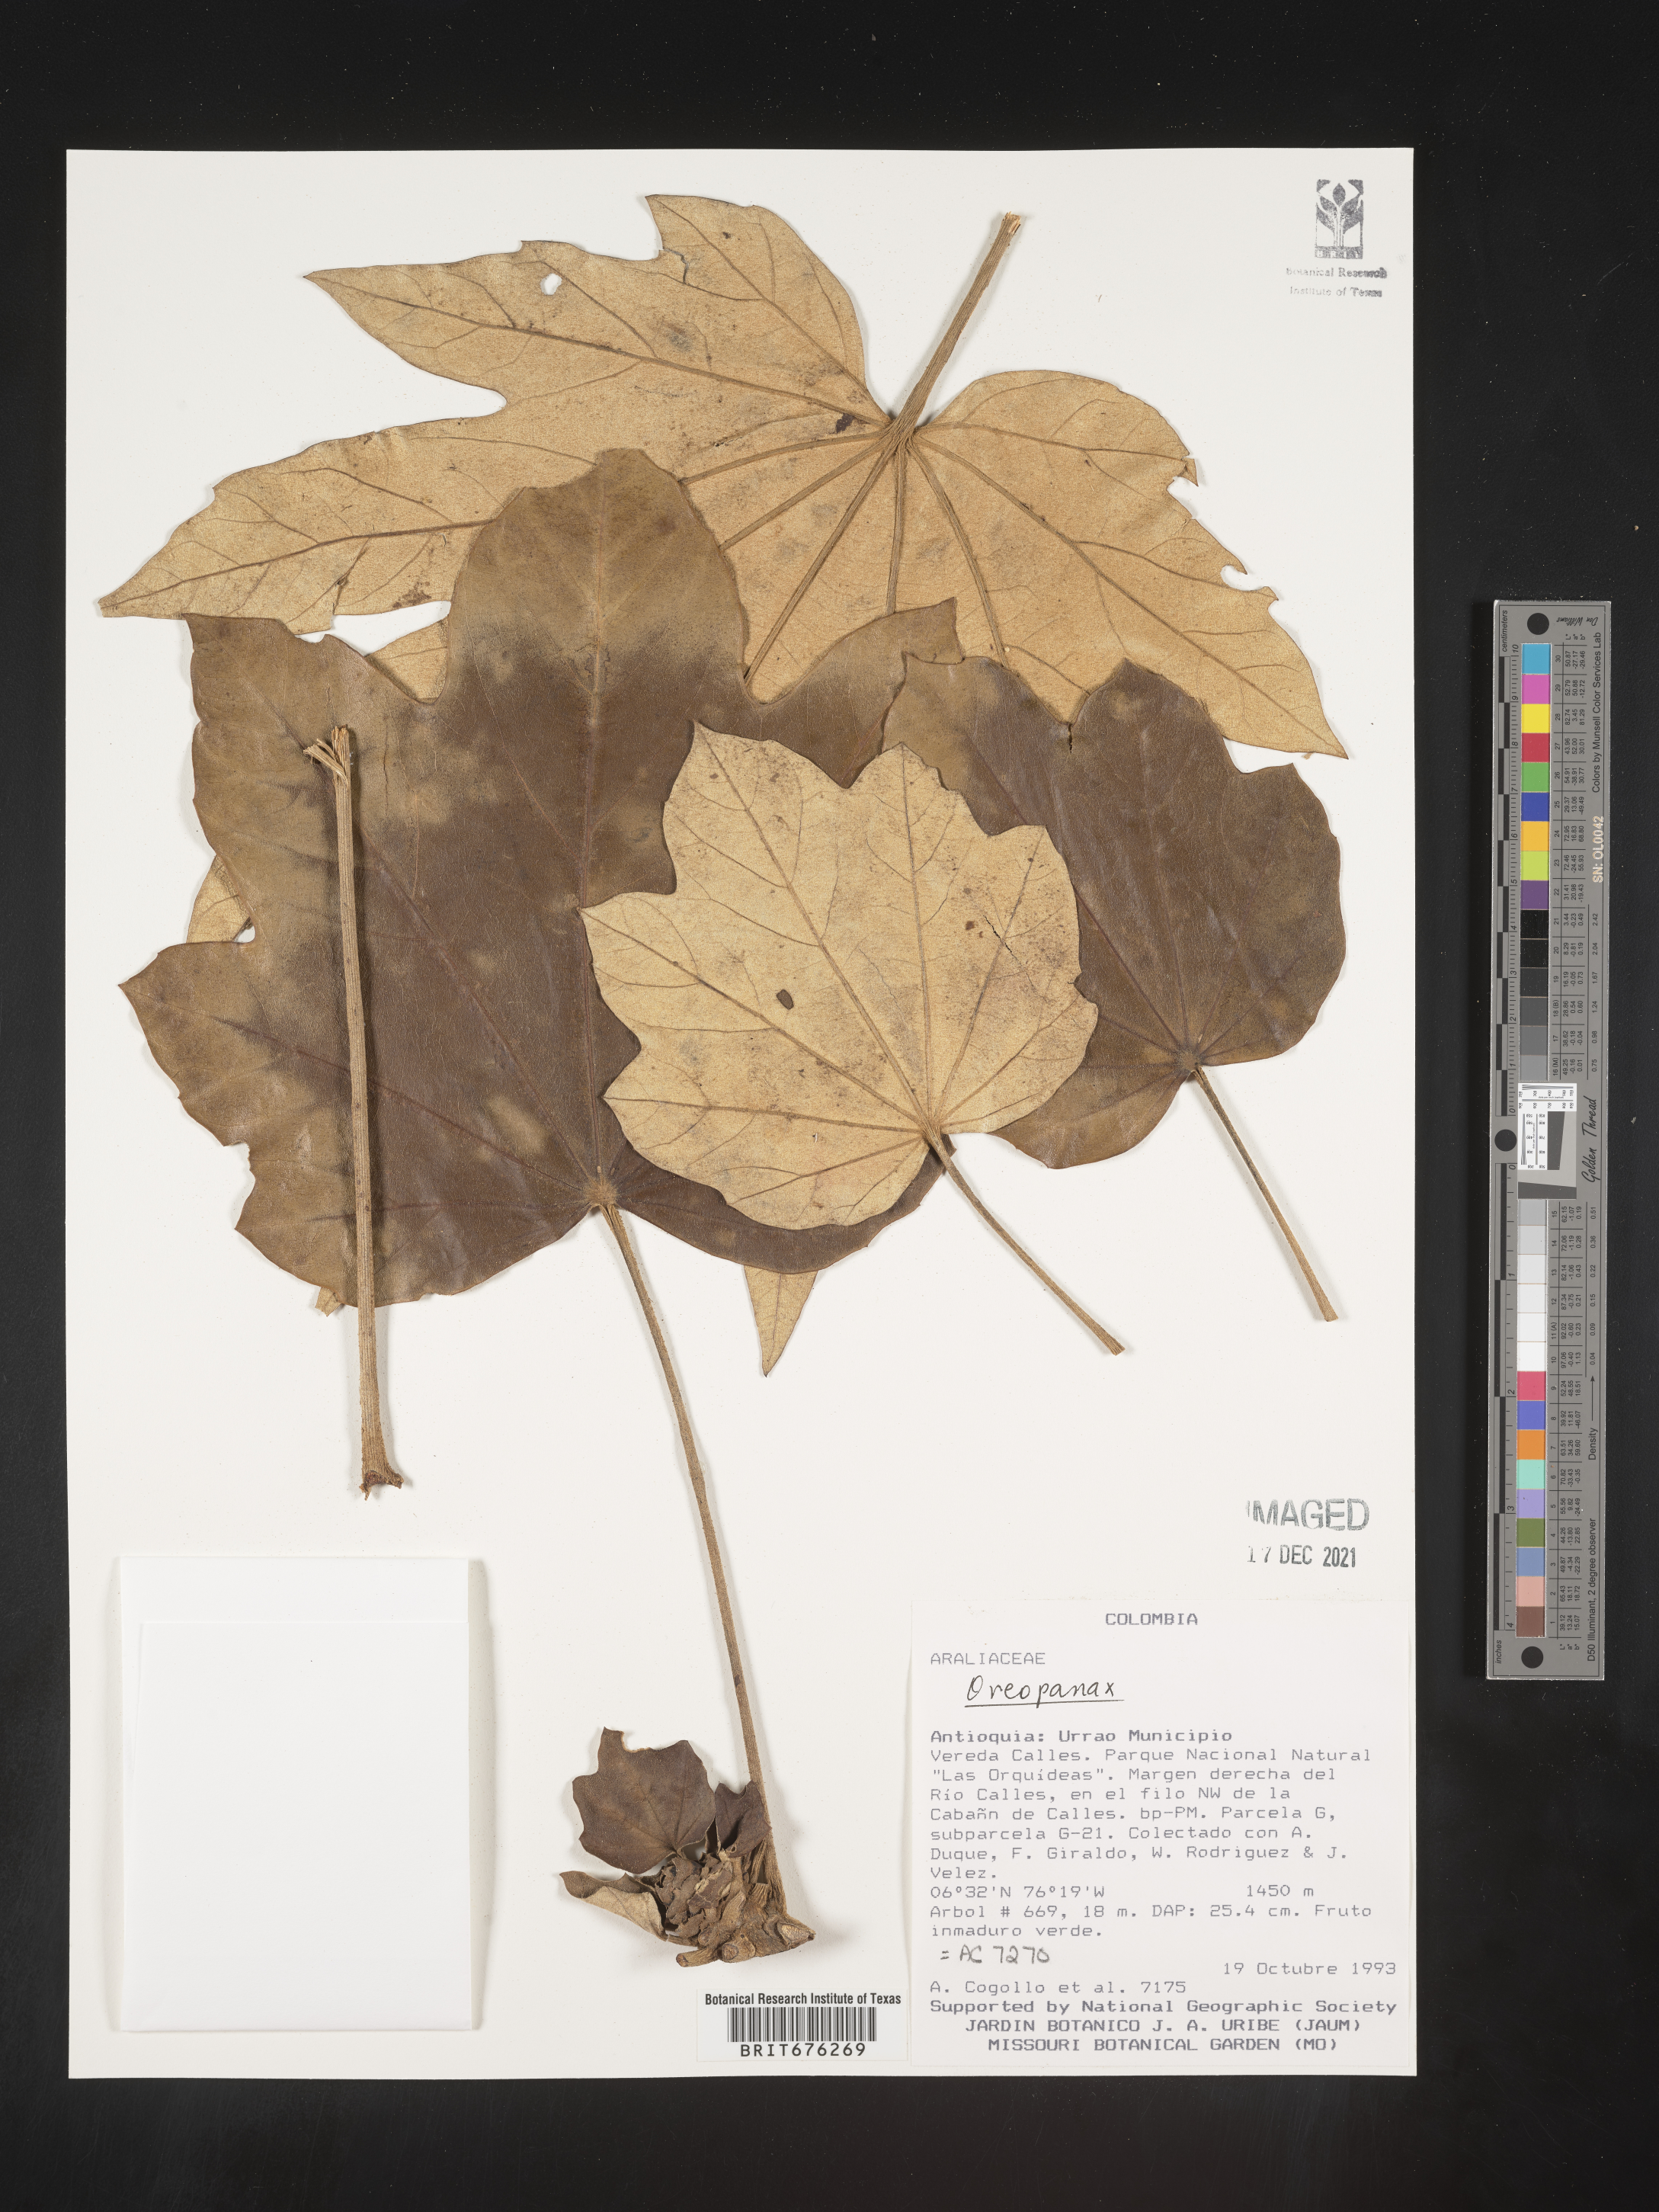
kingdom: Plantae
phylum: Tracheophyta
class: Magnoliopsida
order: Apiales
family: Araliaceae
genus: Oreopanax
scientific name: Oreopanax
